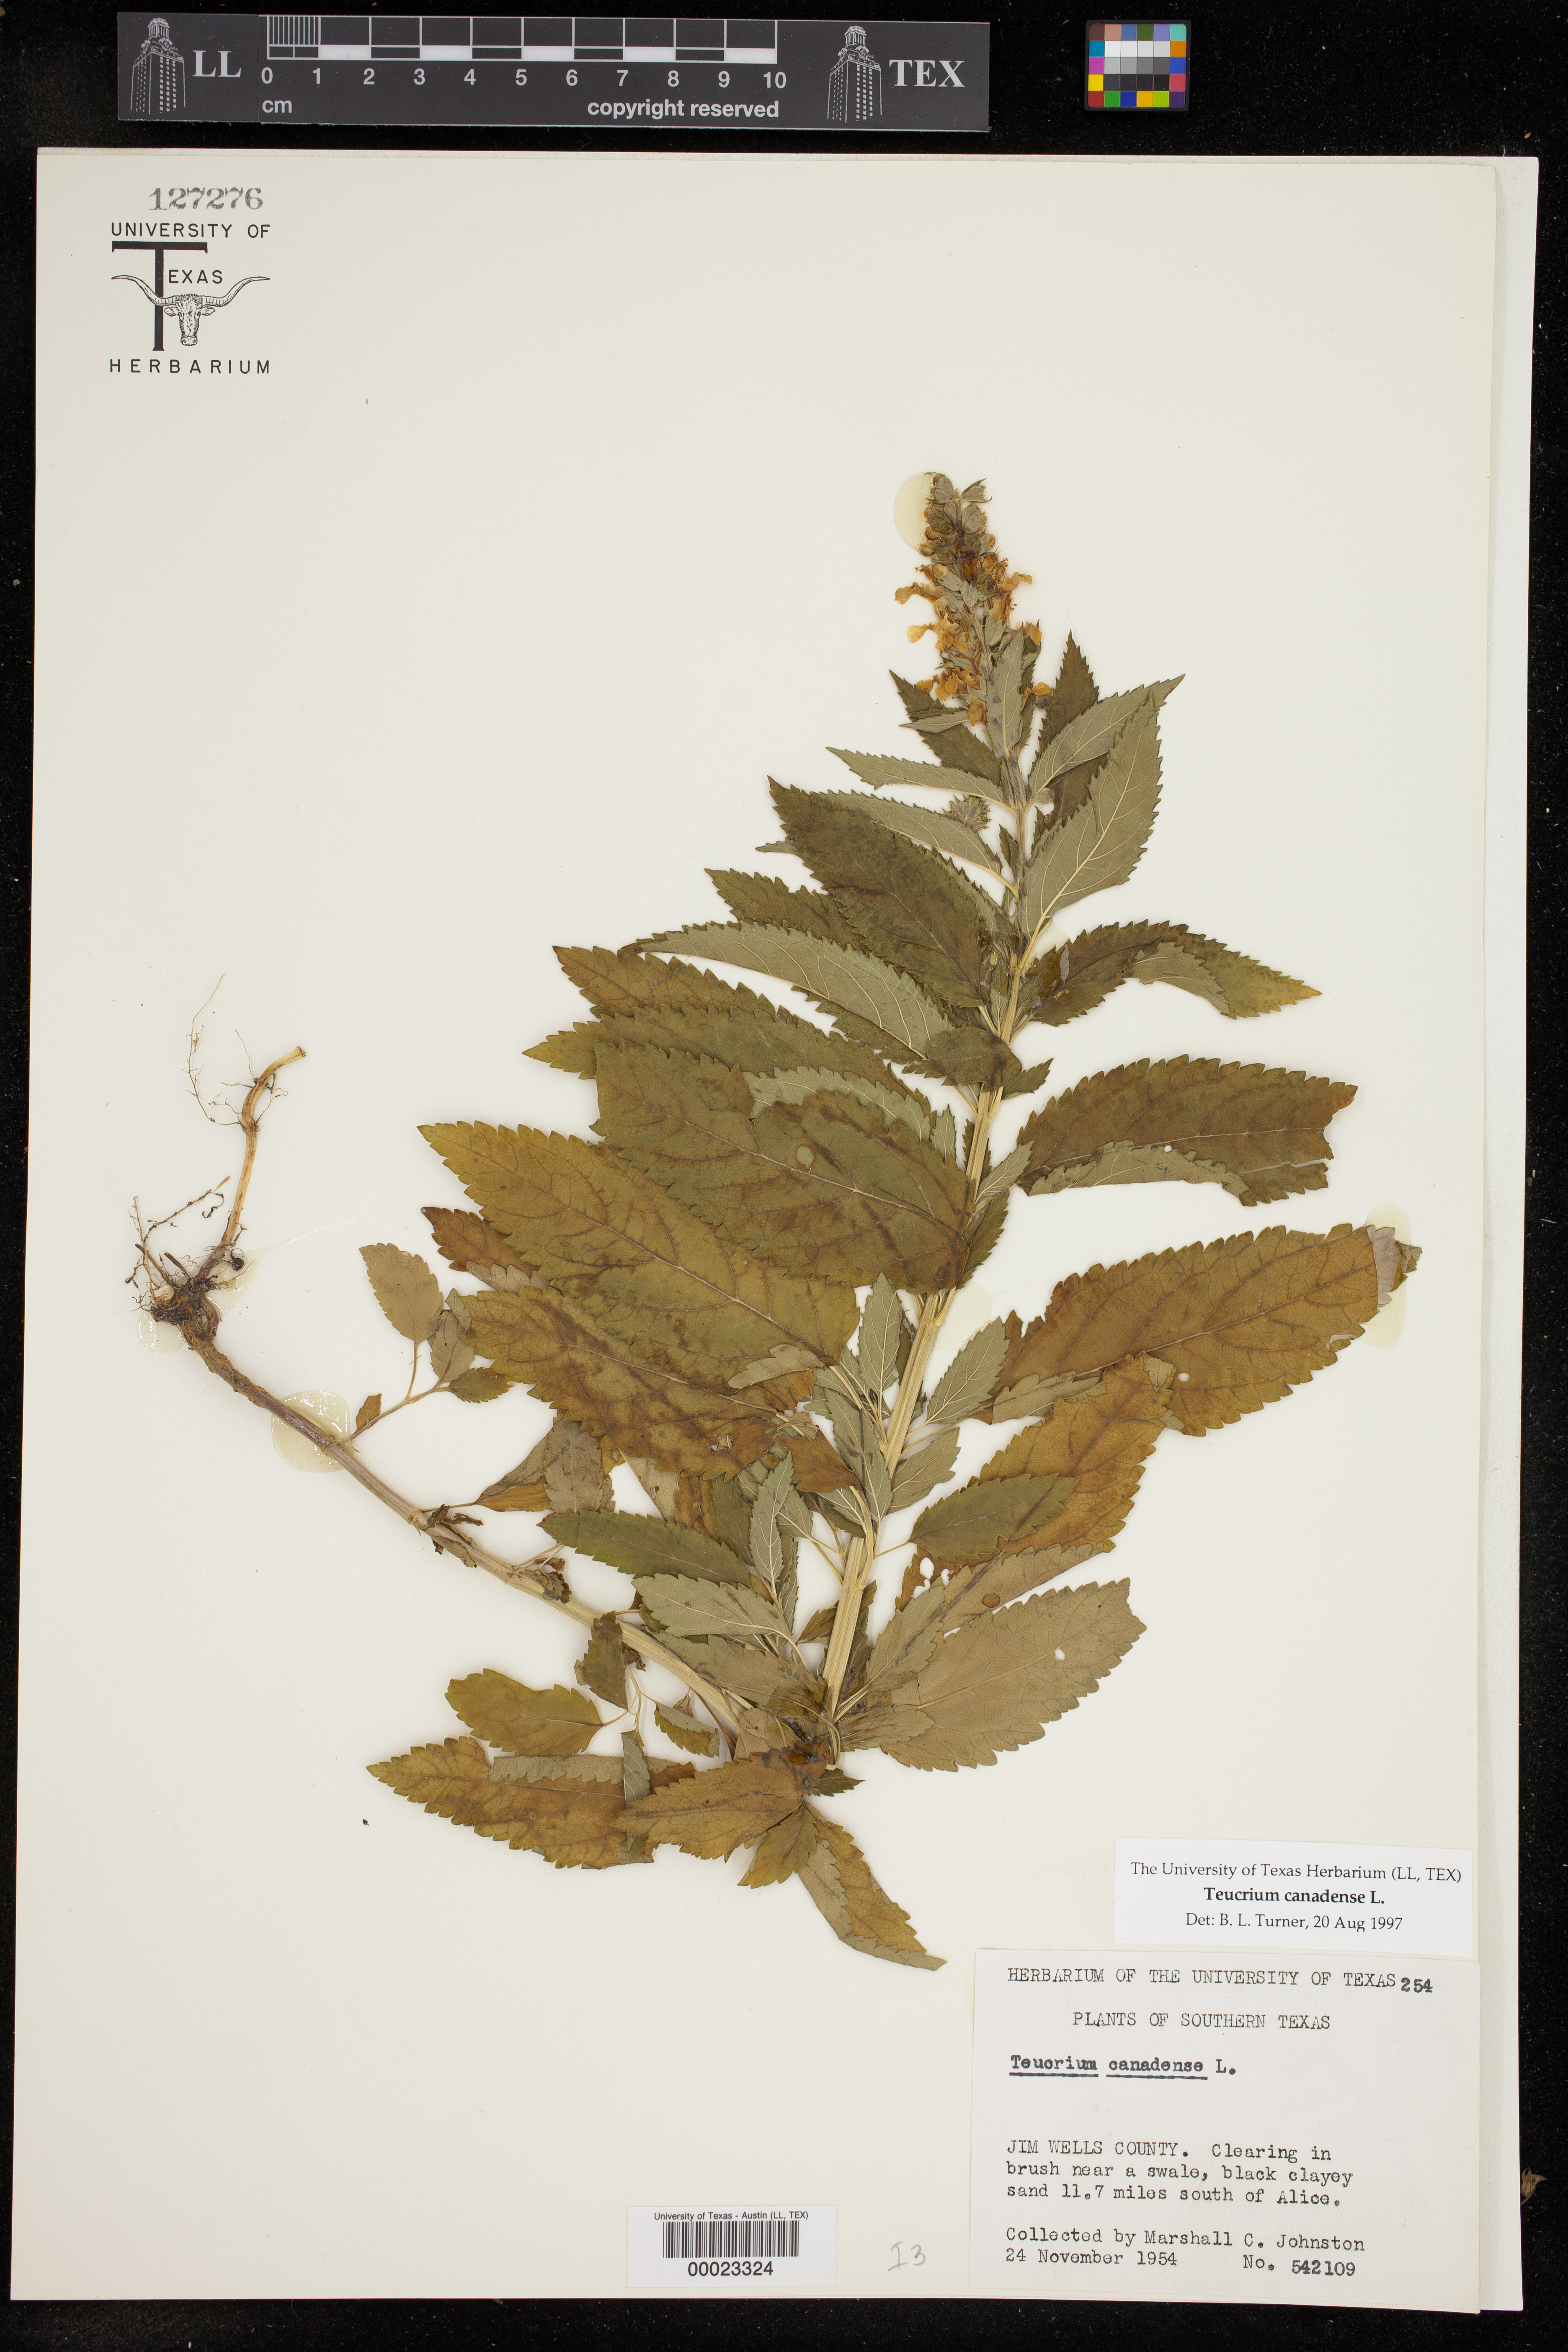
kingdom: Plantae
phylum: Tracheophyta
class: Magnoliopsida
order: Lamiales
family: Lamiaceae
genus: Teucrium
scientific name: Teucrium canadense
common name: American germander
